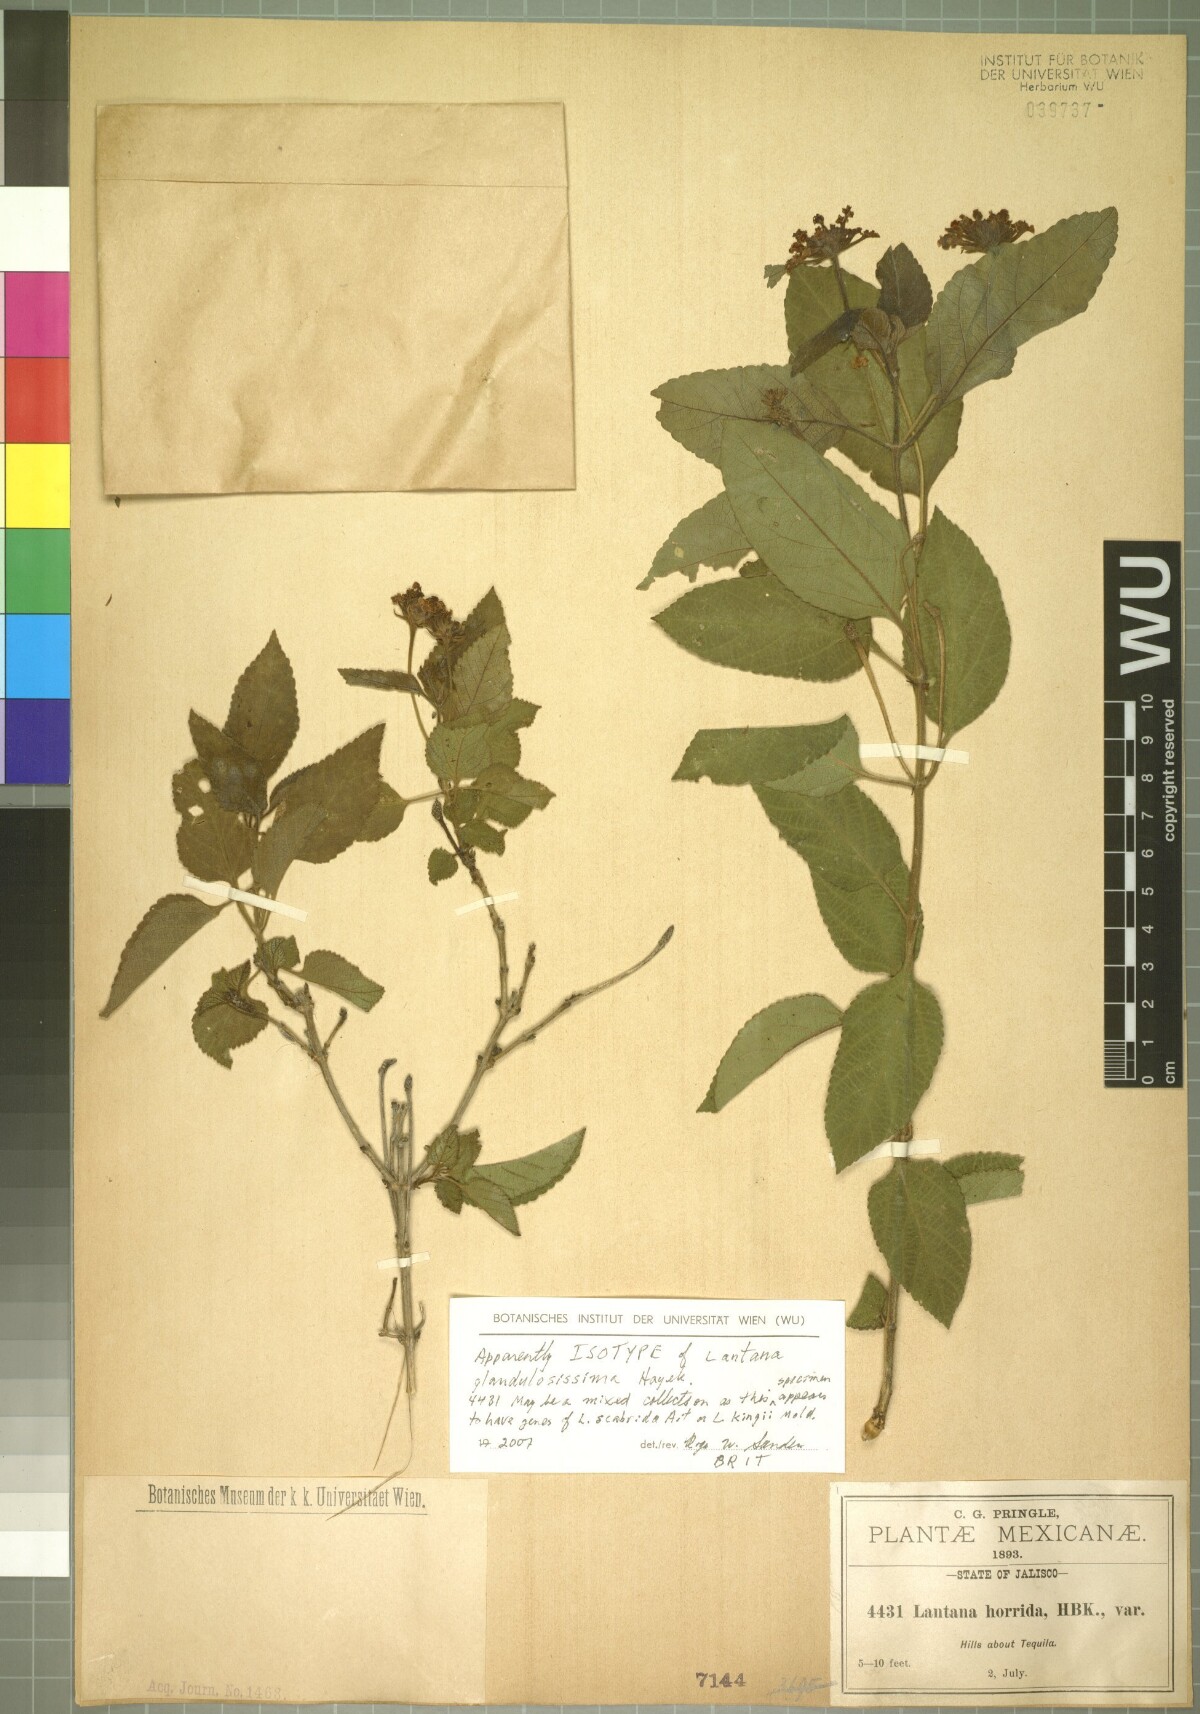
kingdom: Plantae
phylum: Tracheophyta
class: Magnoliopsida
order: Lamiales
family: Verbenaceae
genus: Lantana
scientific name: Lantana camara
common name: Lantana
